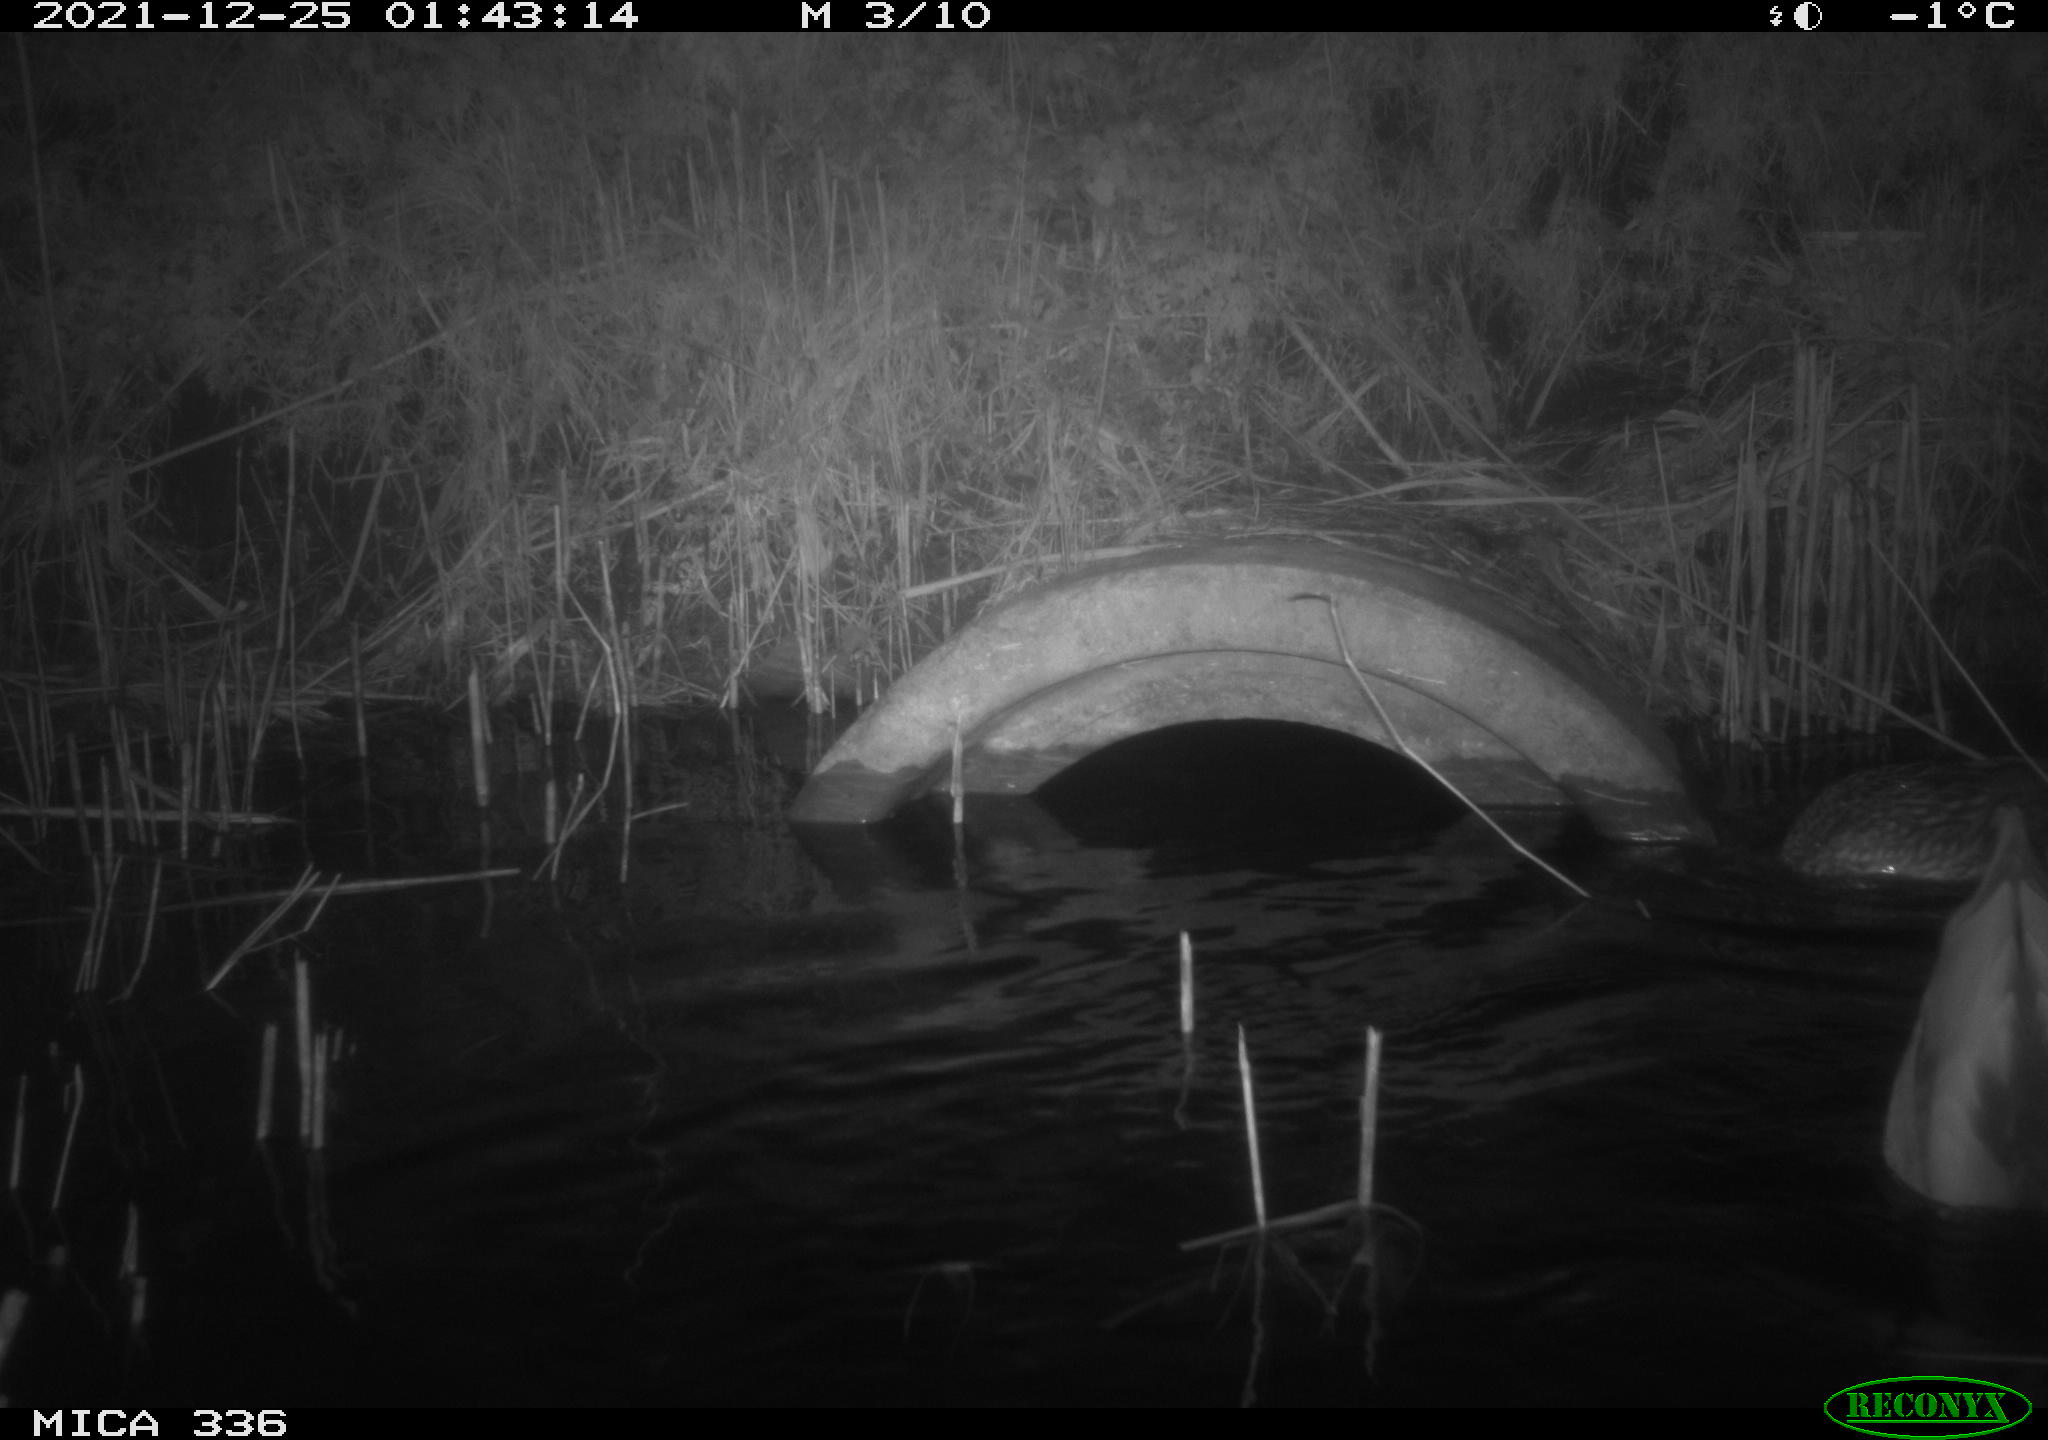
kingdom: Animalia
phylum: Chordata
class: Aves
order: Anseriformes
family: Anatidae
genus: Anas
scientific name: Anas platyrhynchos
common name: Mallard
